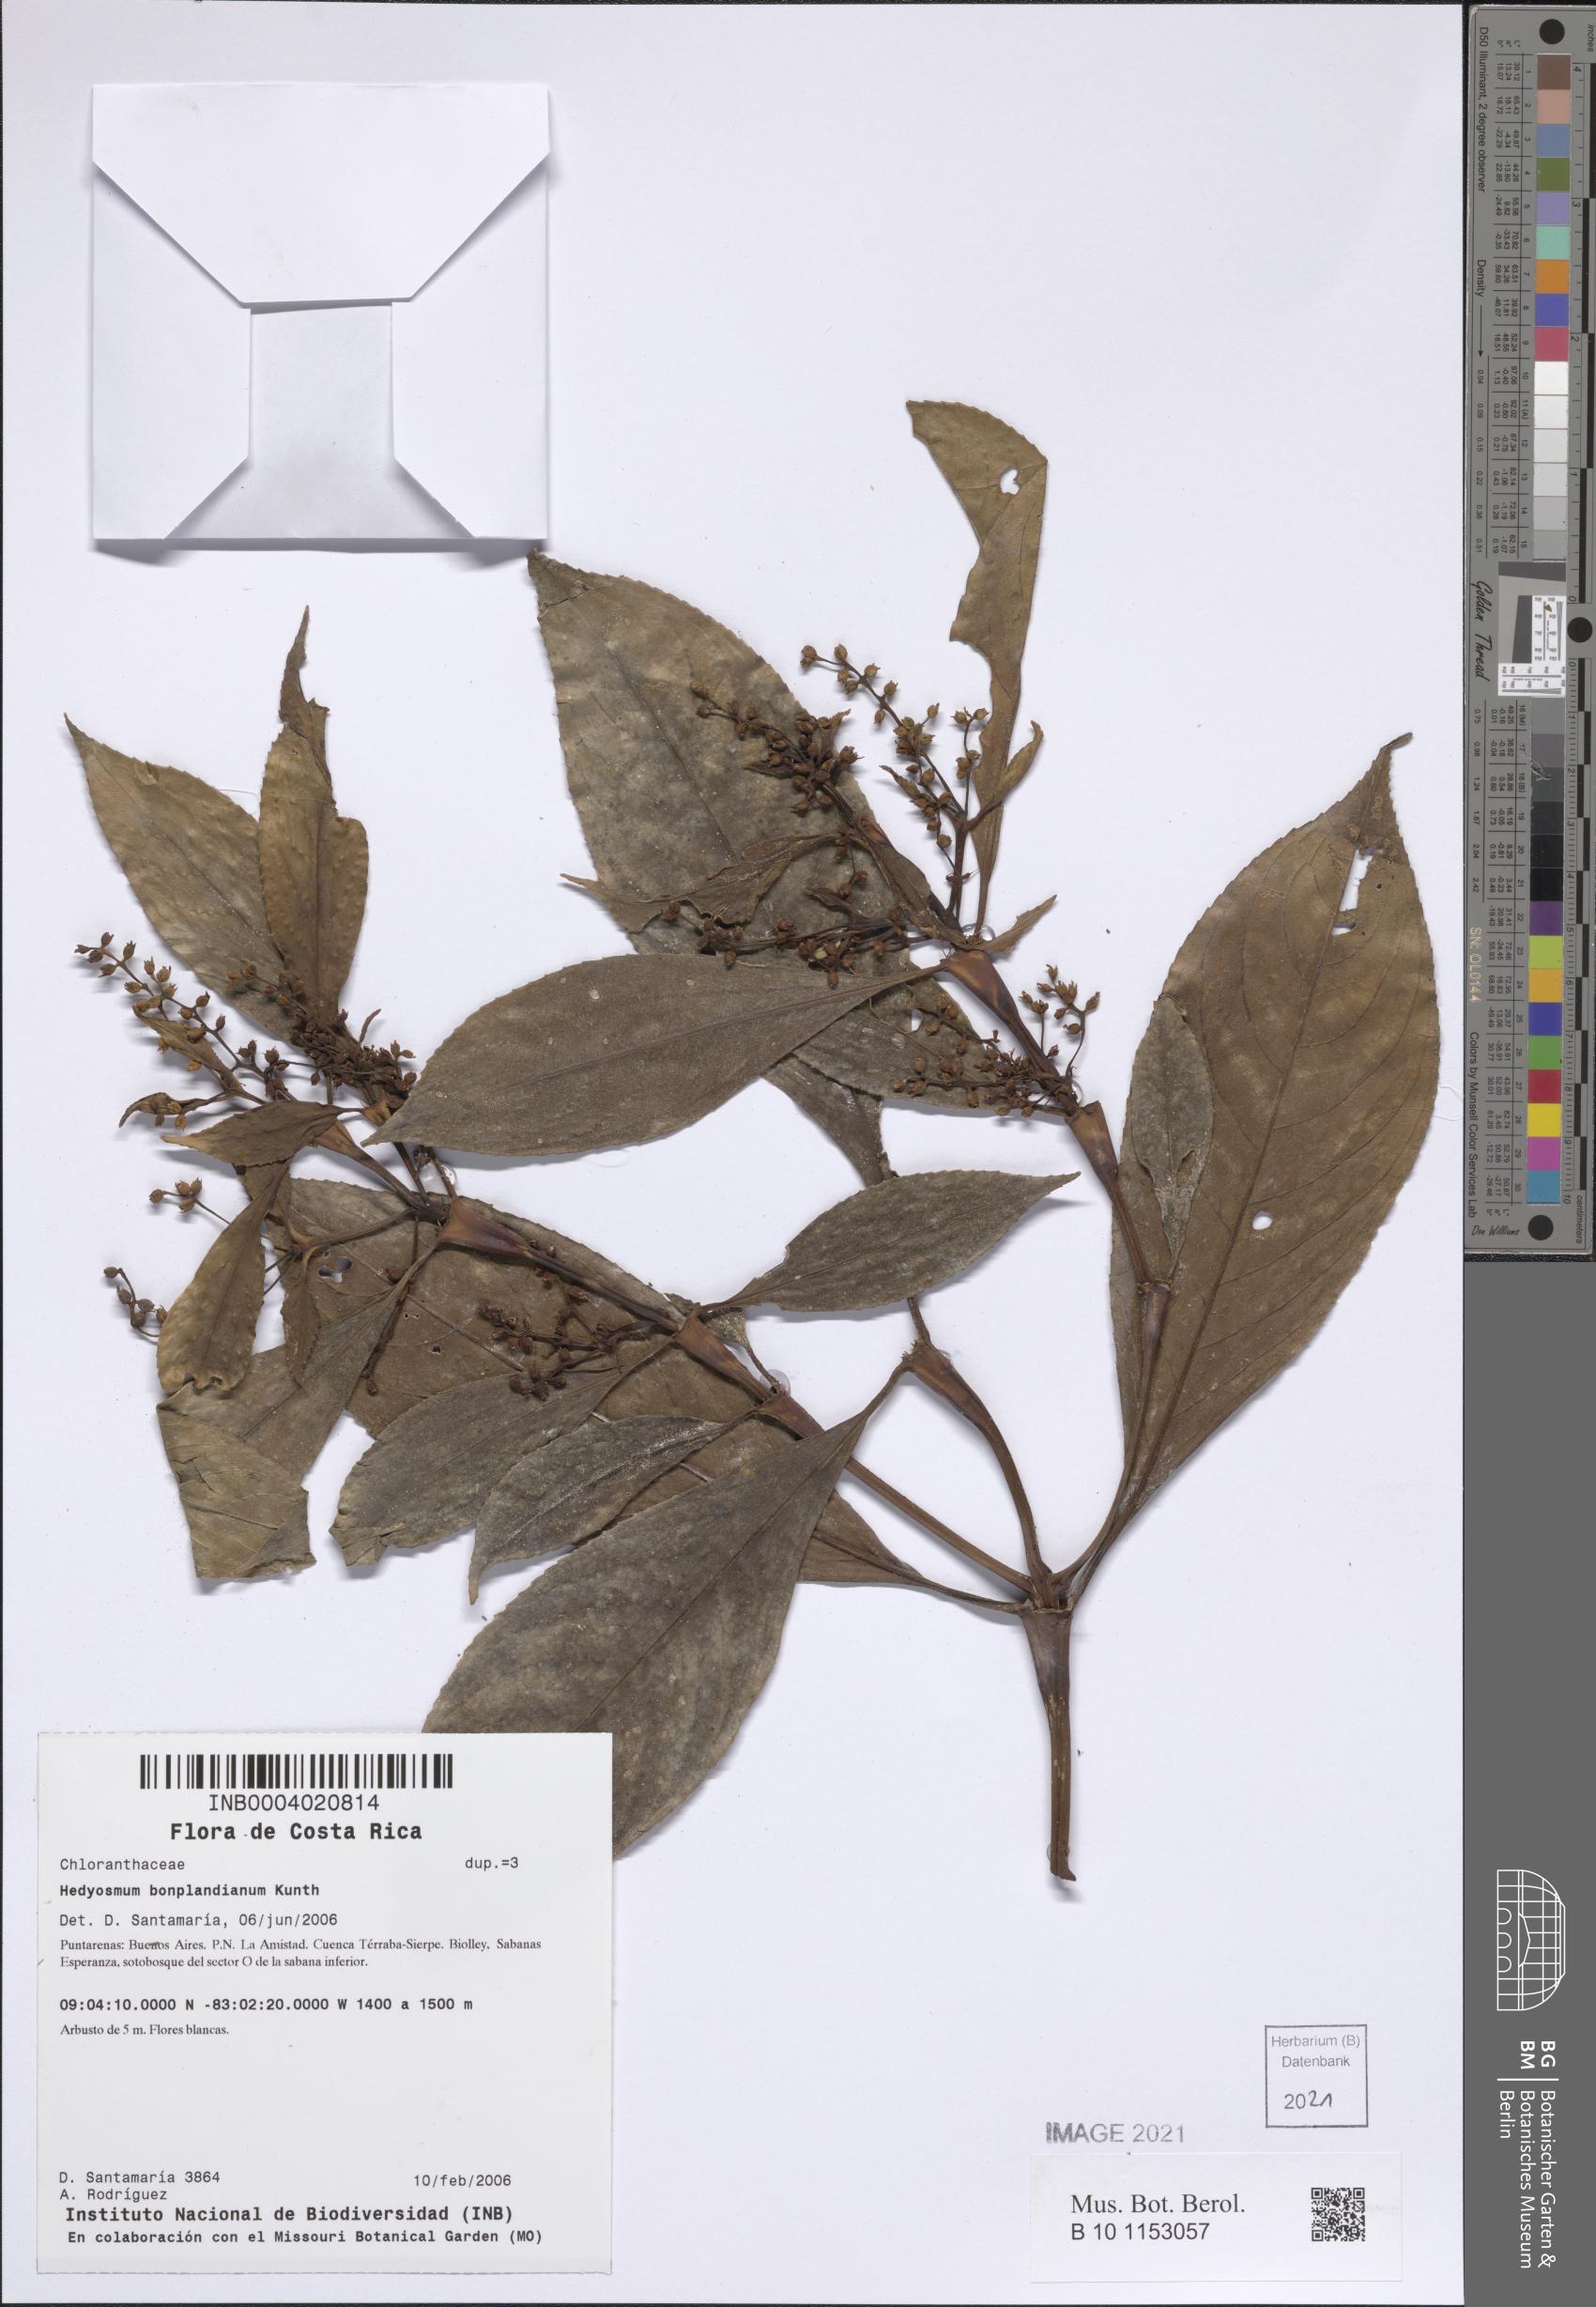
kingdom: Plantae
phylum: Tracheophyta
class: Magnoliopsida
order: Chloranthales
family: Chloranthaceae
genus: Hedyosmum
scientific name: Hedyosmum bonplandianum
